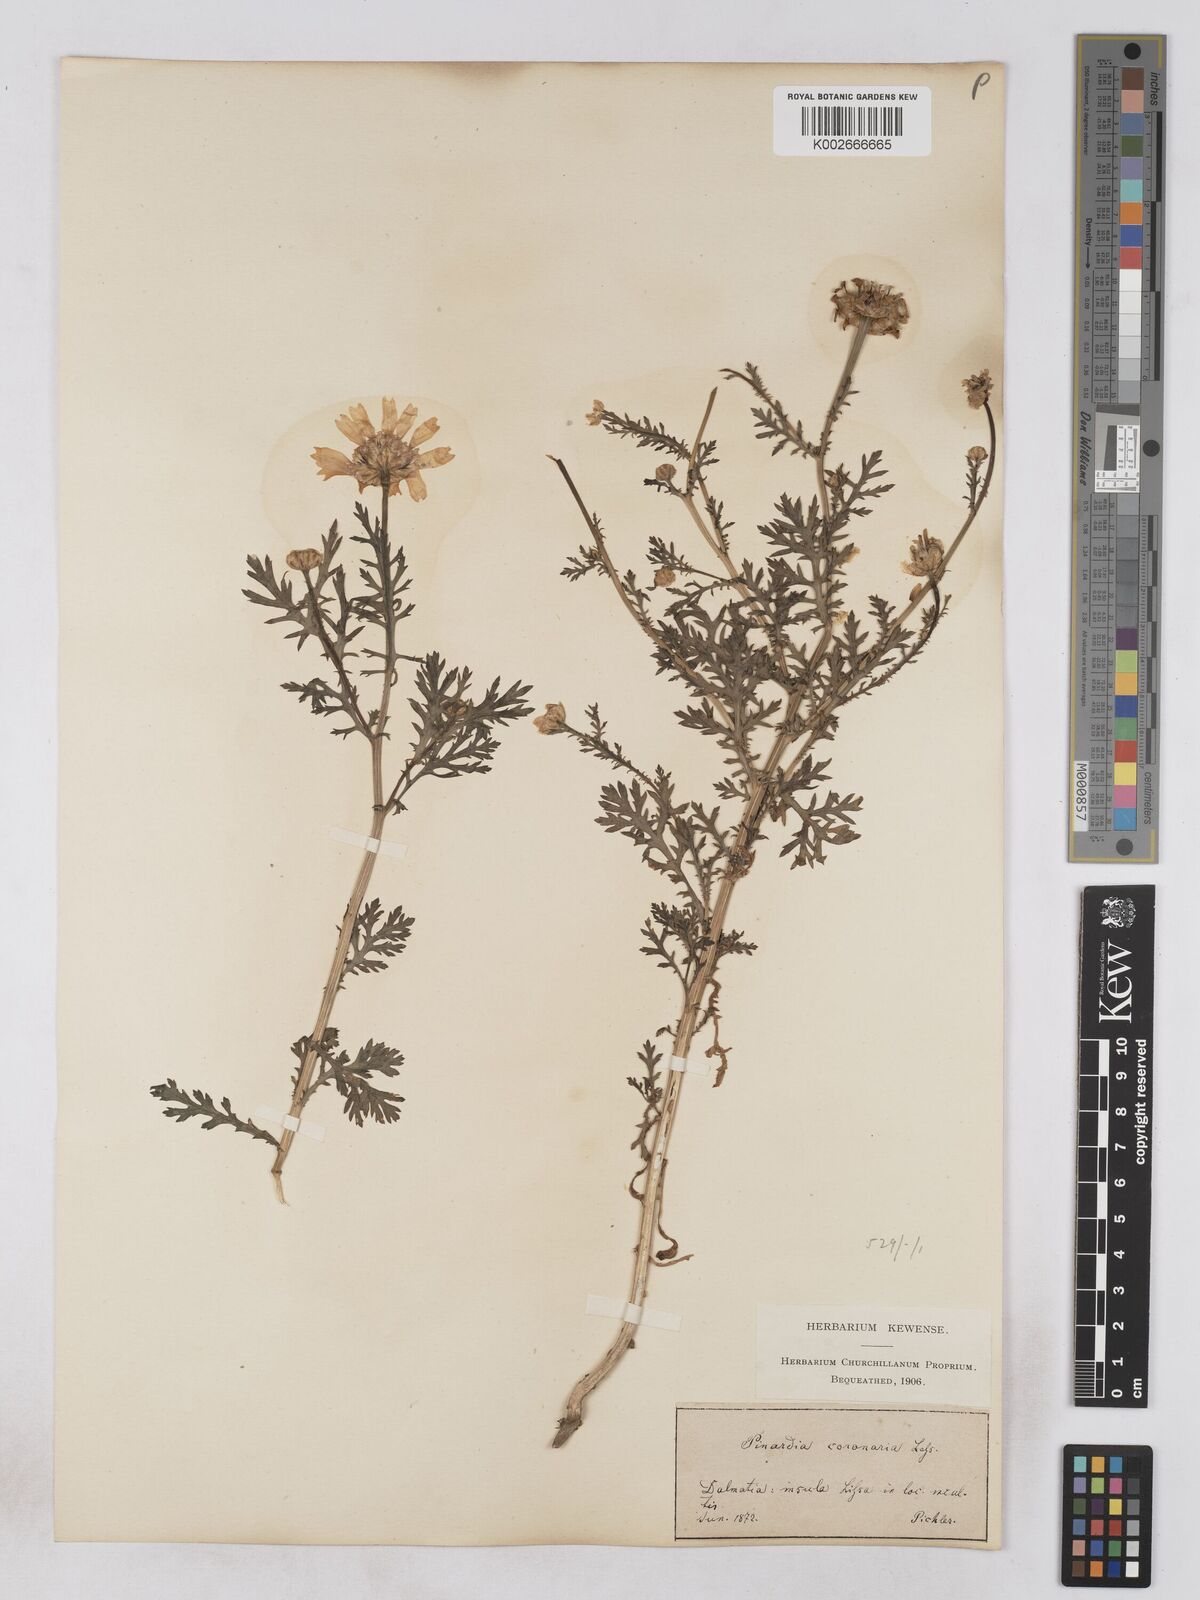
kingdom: Plantae
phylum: Tracheophyta
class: Magnoliopsida
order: Asterales
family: Asteraceae
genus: Glebionis
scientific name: Glebionis coronaria
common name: Crowndaisy
